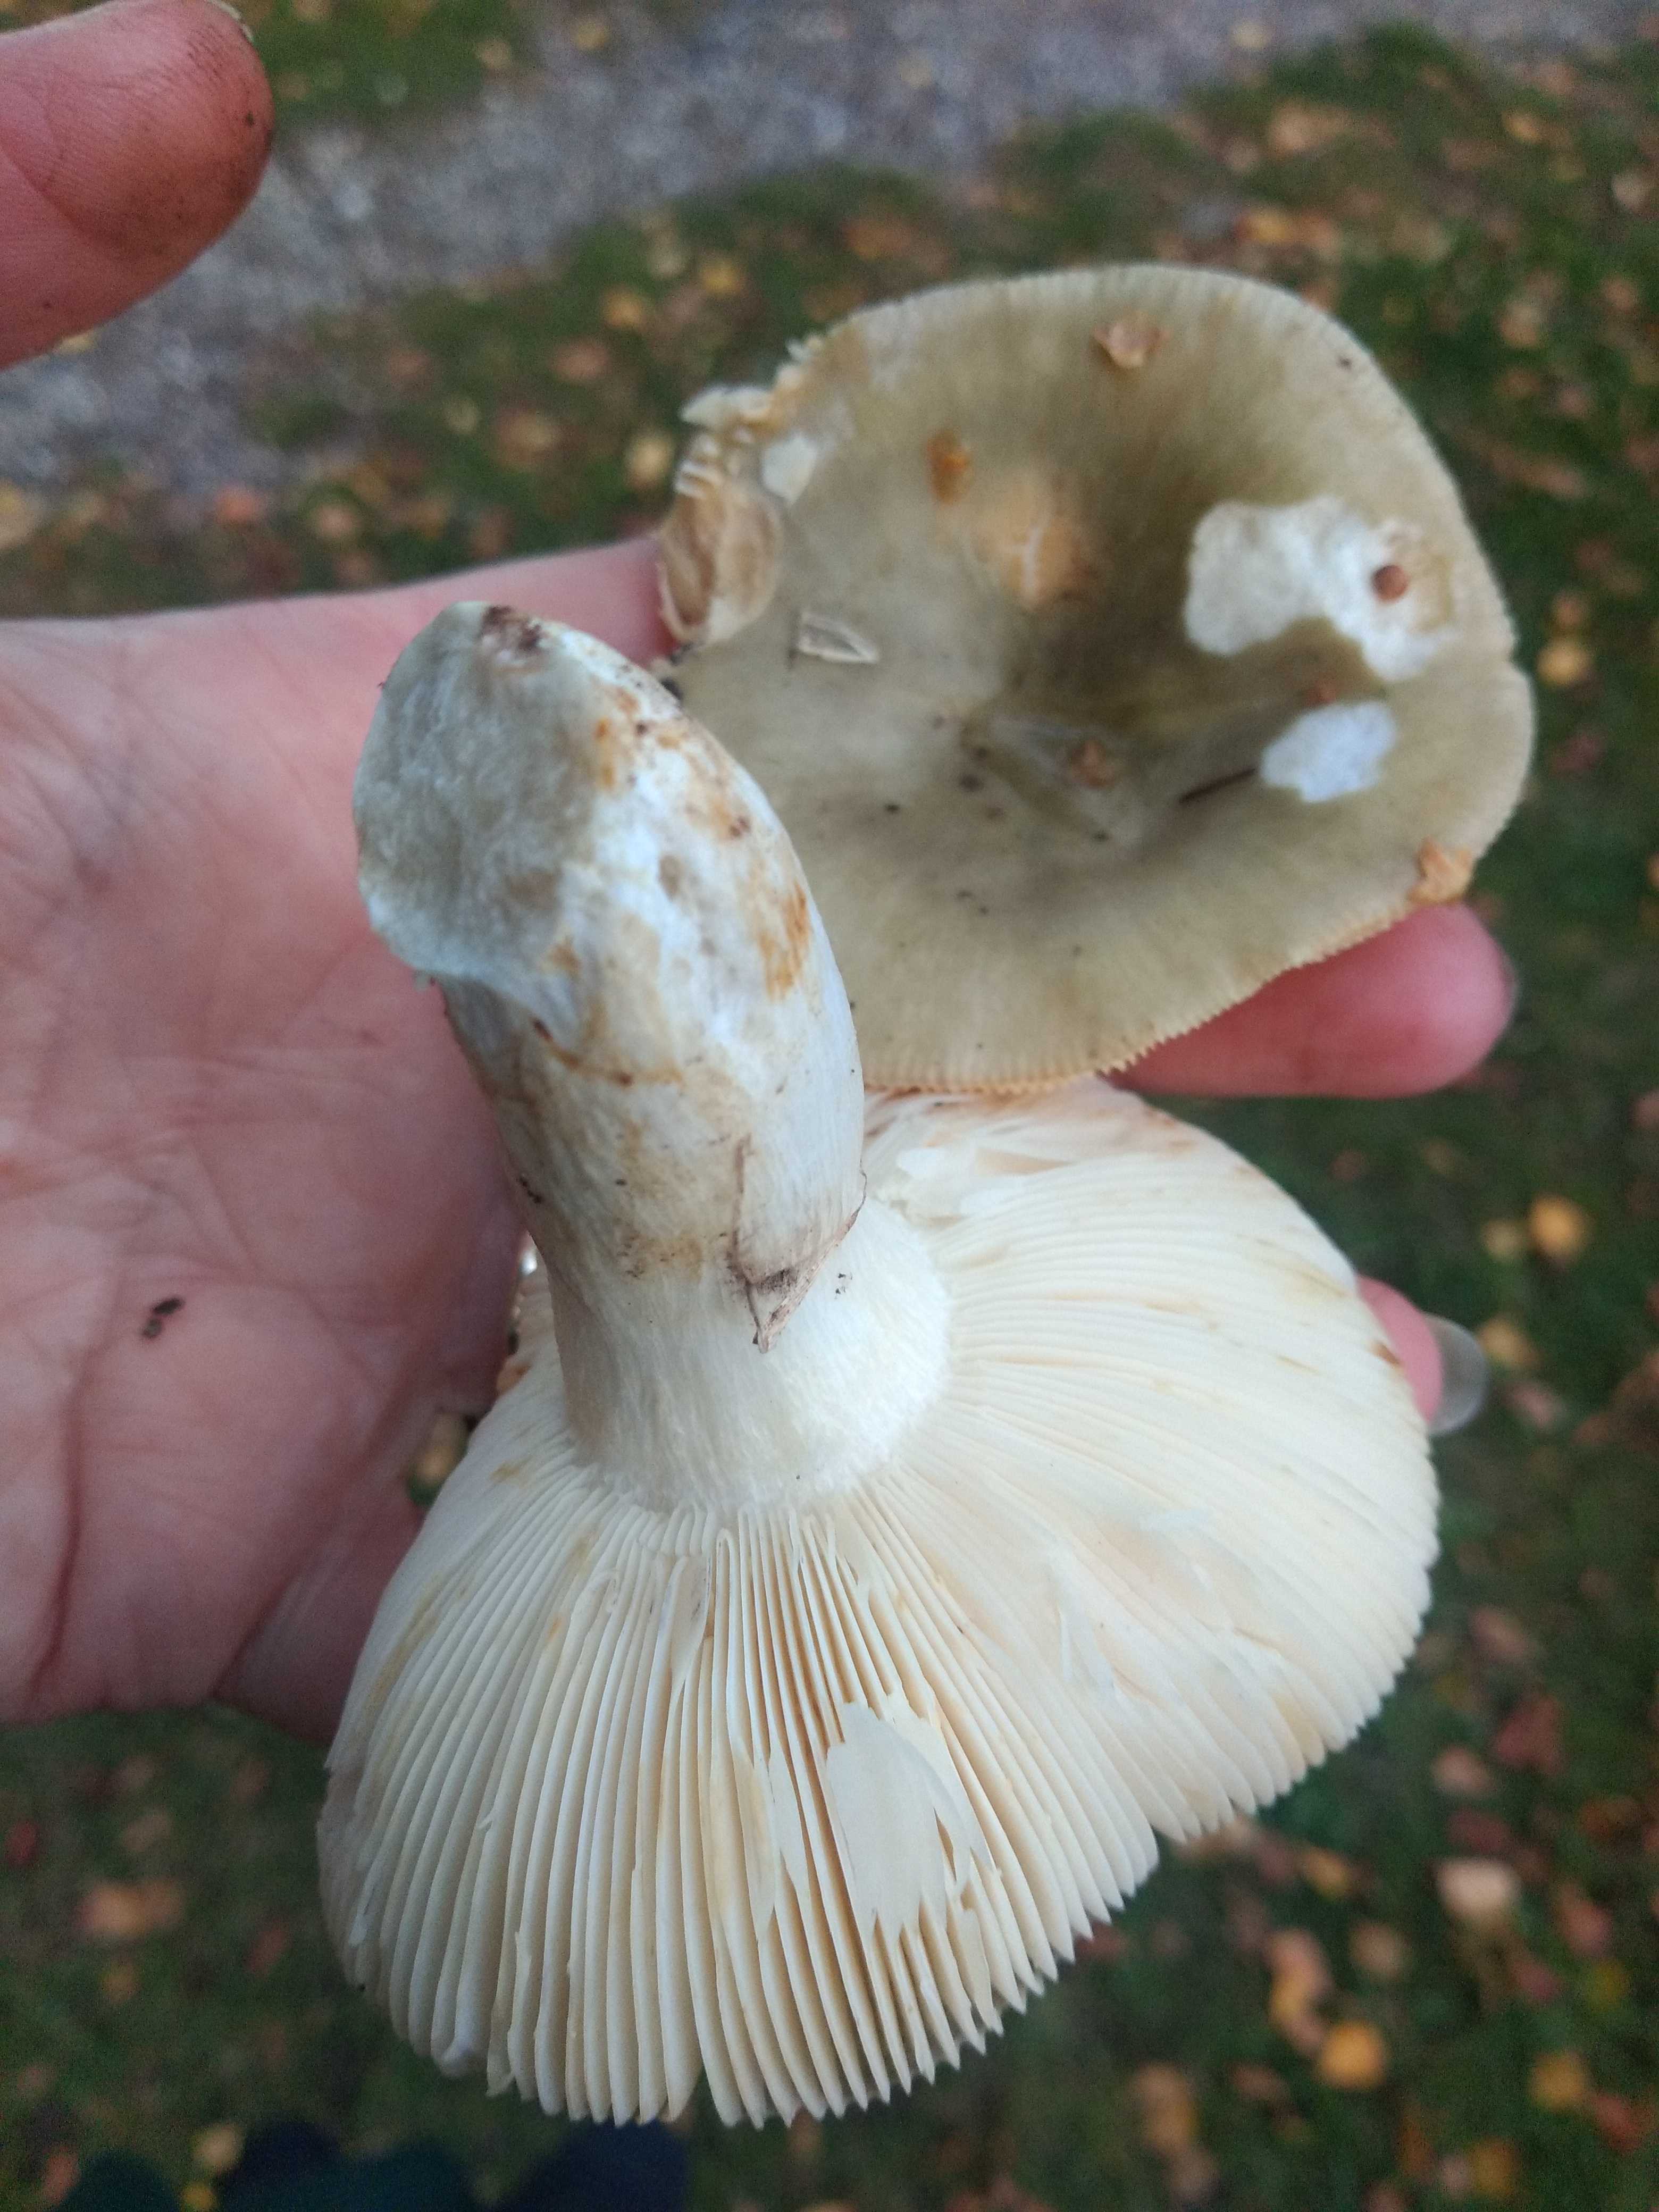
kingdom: Fungi
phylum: Basidiomycota
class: Agaricomycetes
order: Russulales
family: Russulaceae
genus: Russula
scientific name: Russula aeruginea
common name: græsgrøn skørhat
